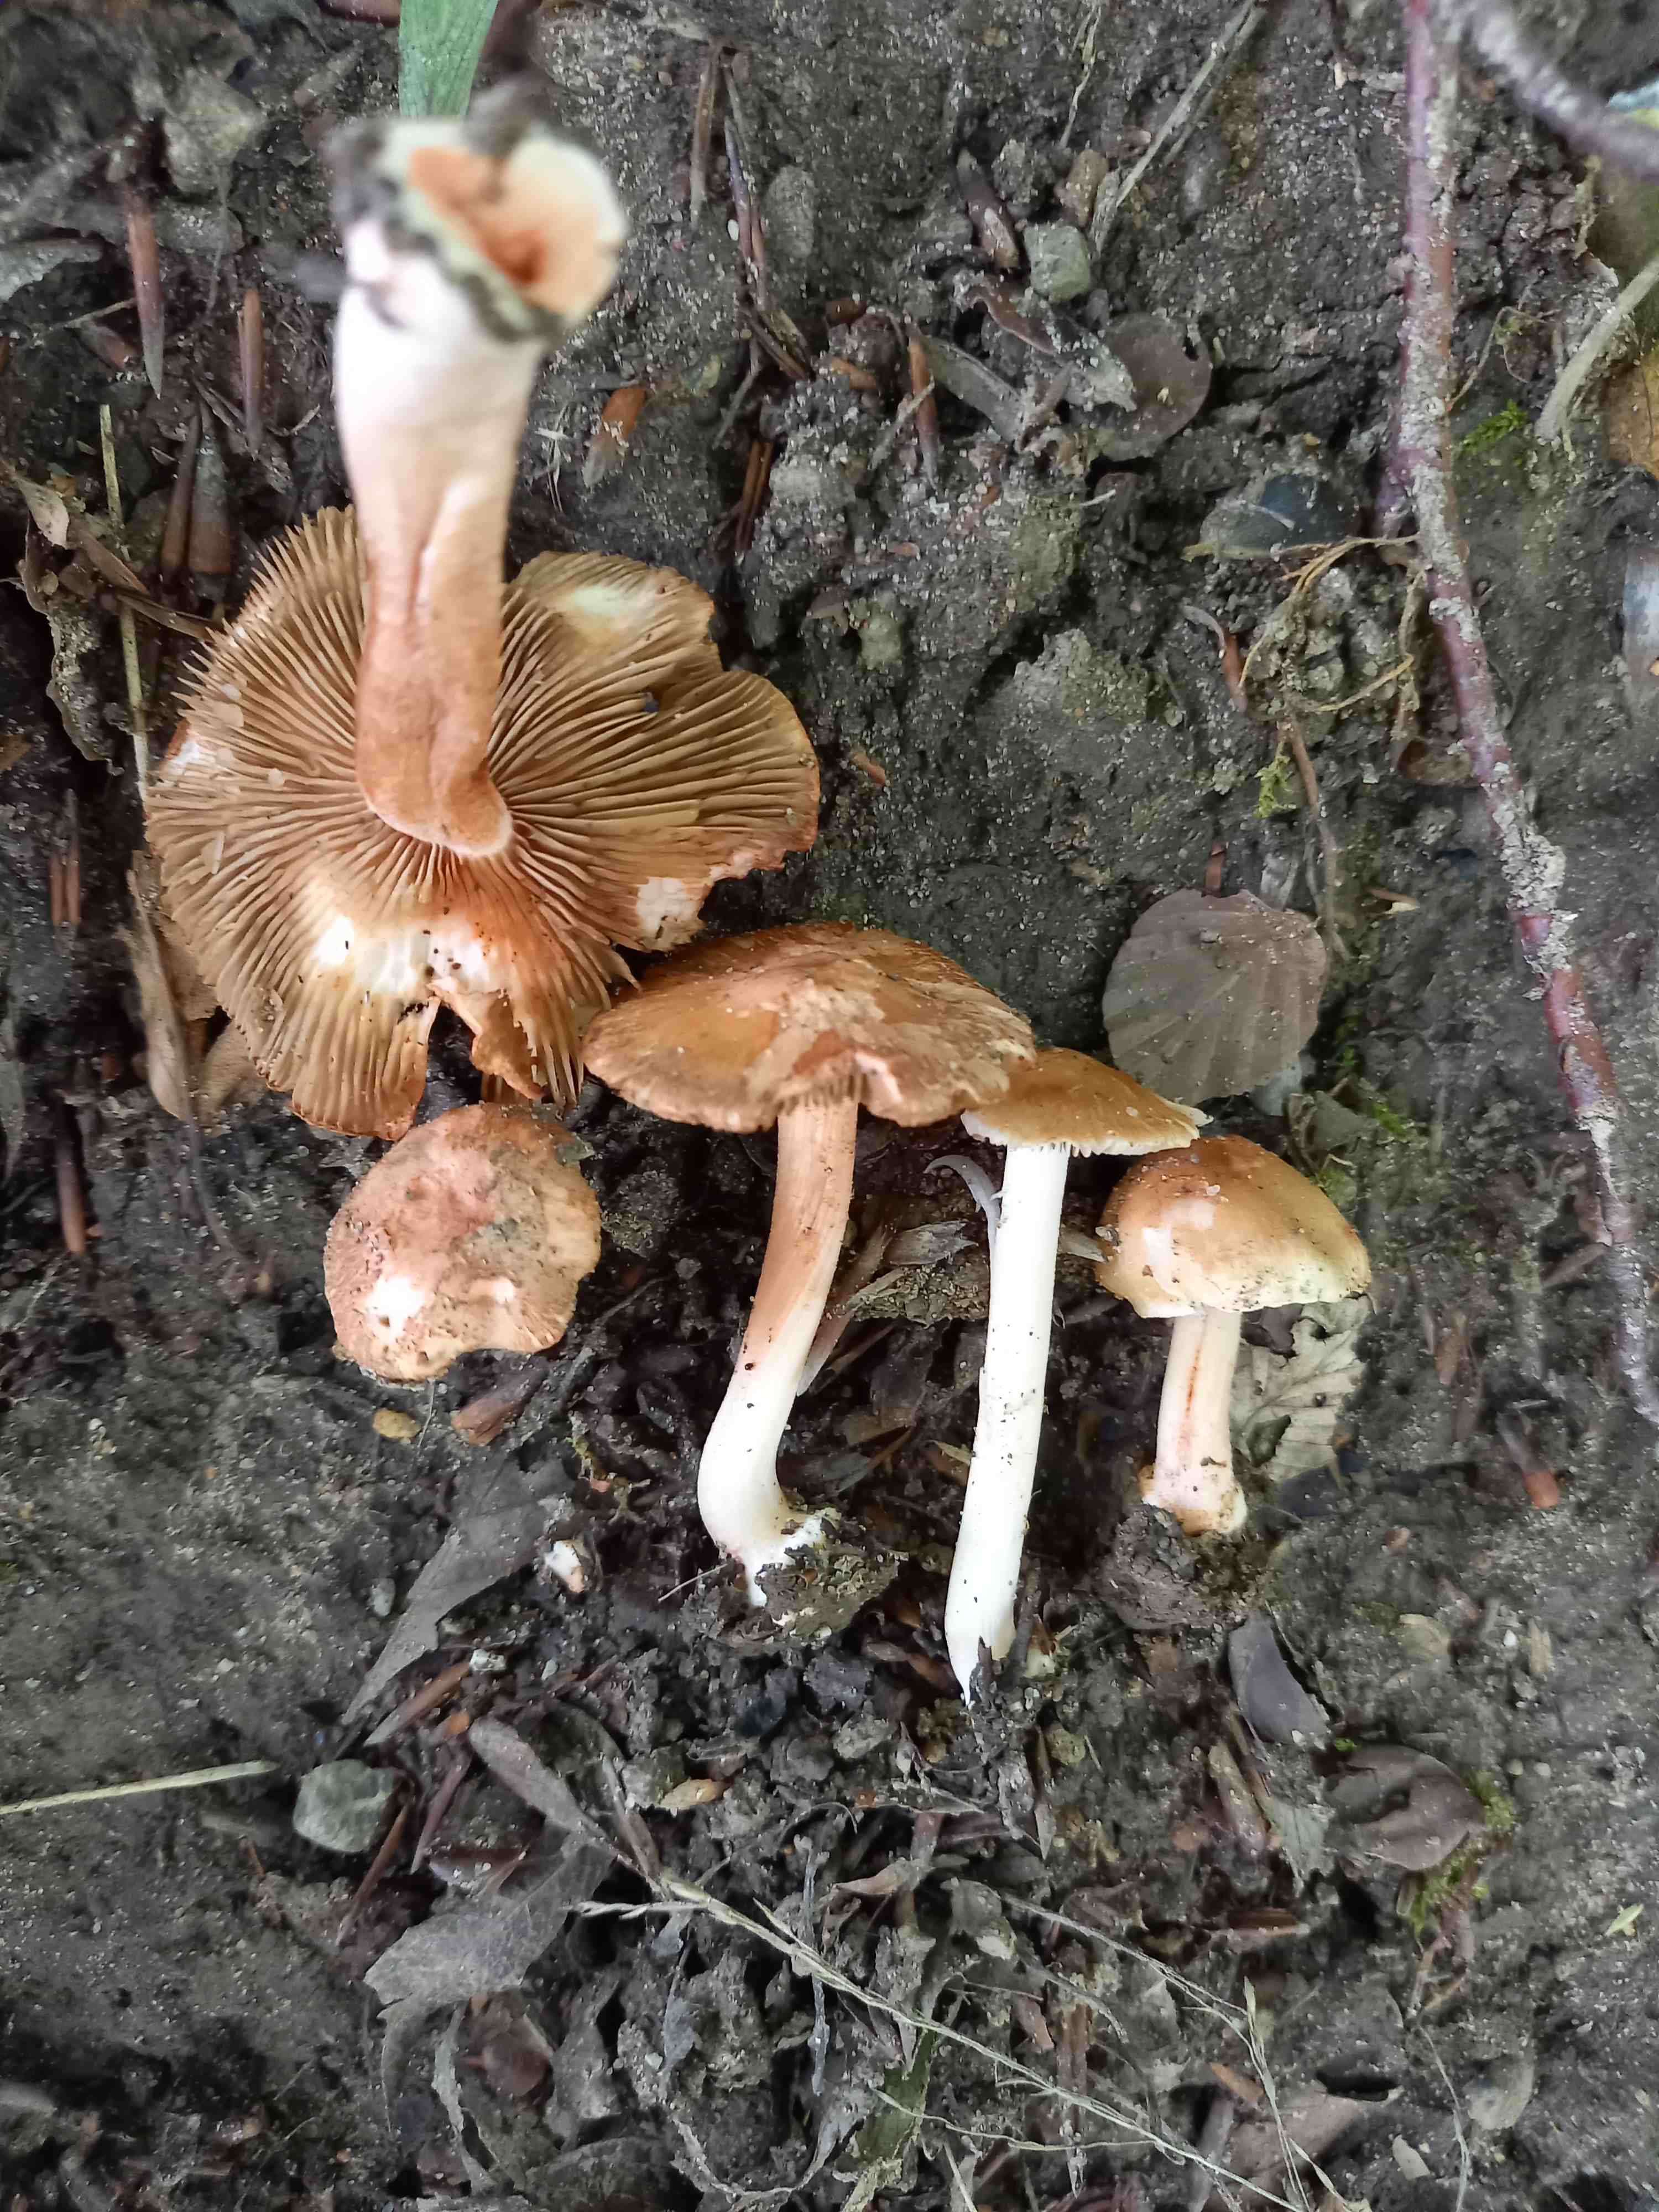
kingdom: Fungi
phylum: Basidiomycota
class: Agaricomycetes
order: Agaricales
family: Inocybaceae
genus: Inocybe
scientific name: Inocybe godeyi
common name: orangerødmende trævlhat
